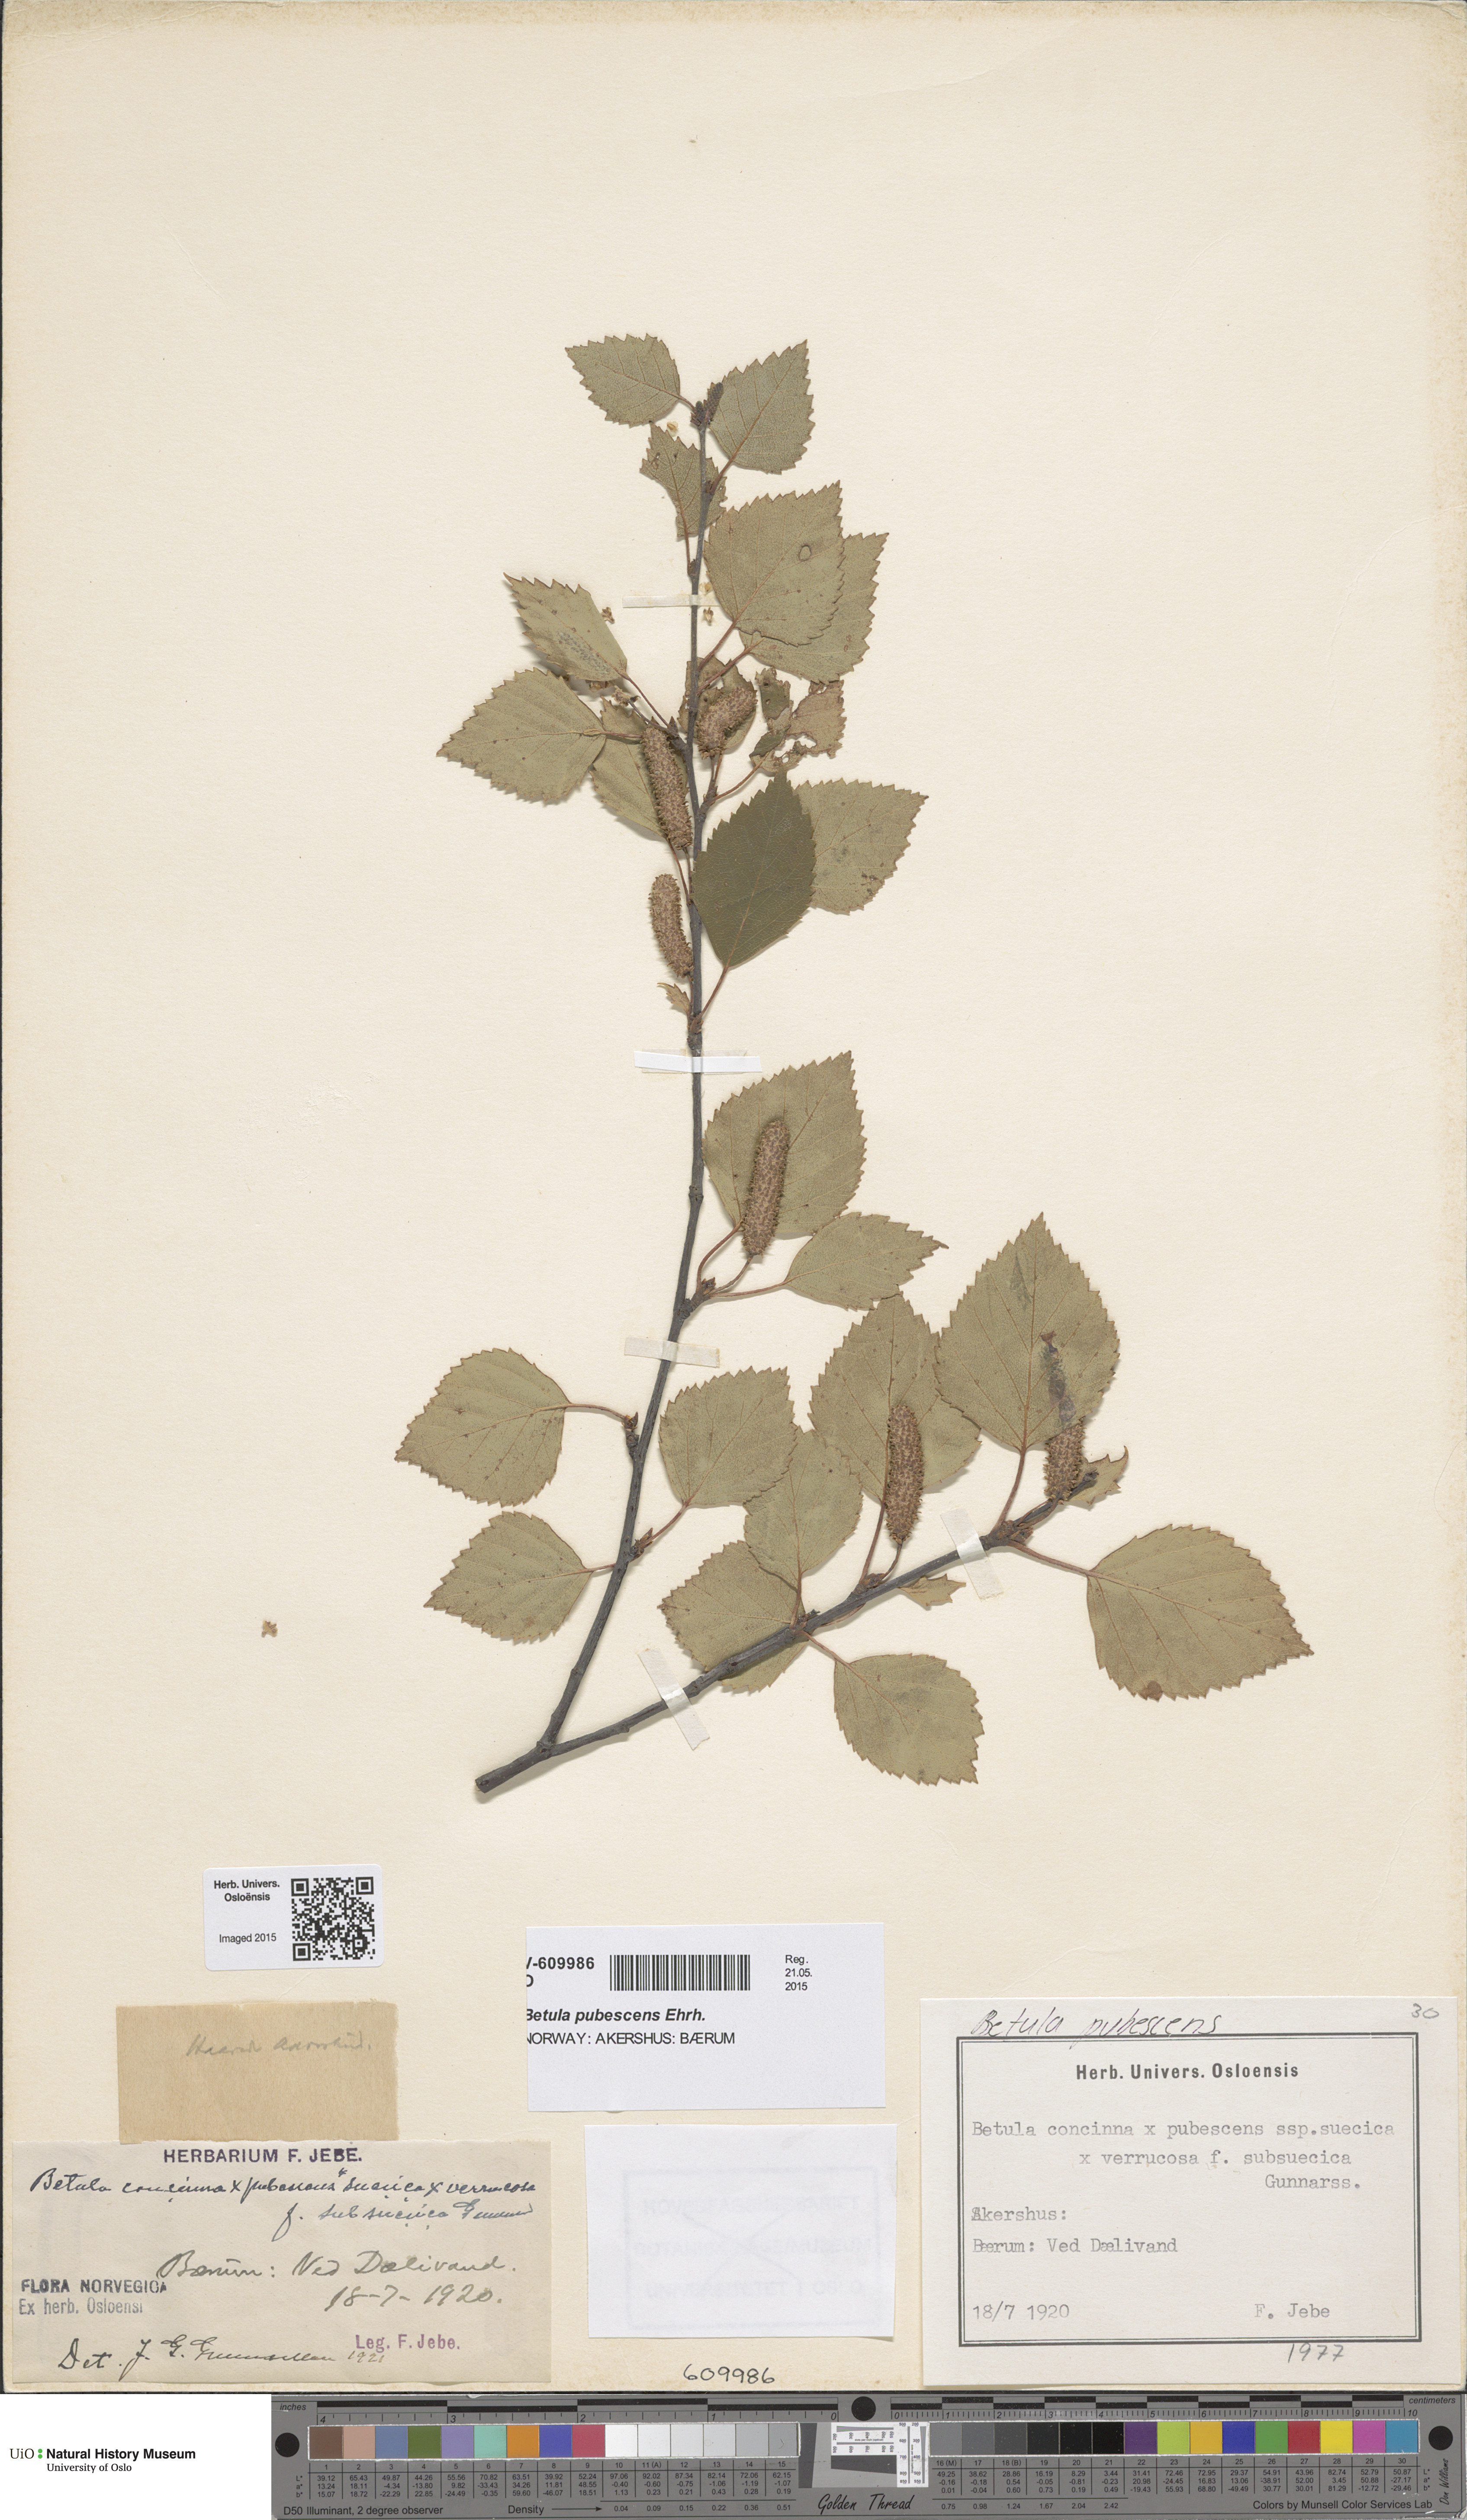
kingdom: Plantae
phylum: Tracheophyta
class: Magnoliopsida
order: Fagales
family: Betulaceae
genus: Betula
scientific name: Betula pubescens
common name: Downy birch
